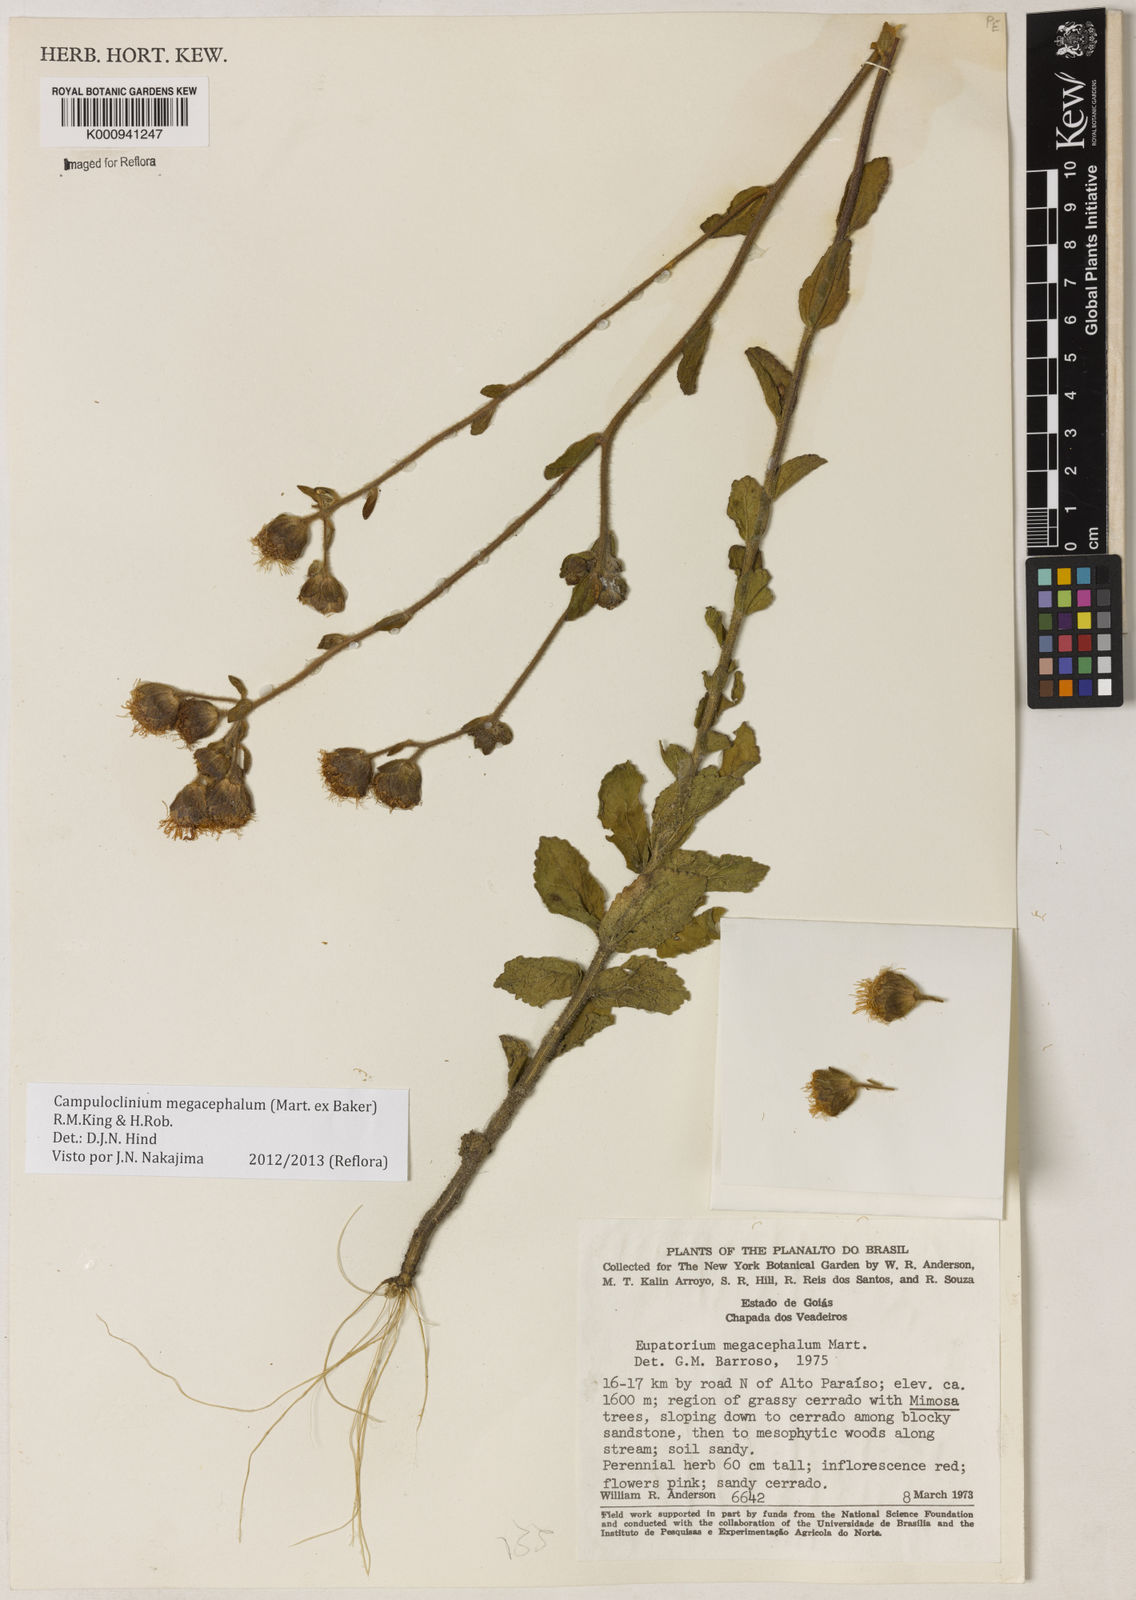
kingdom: Plantae
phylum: Tracheophyta
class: Magnoliopsida
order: Asterales
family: Asteraceae
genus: Campuloclinium
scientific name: Campuloclinium megacephalum
